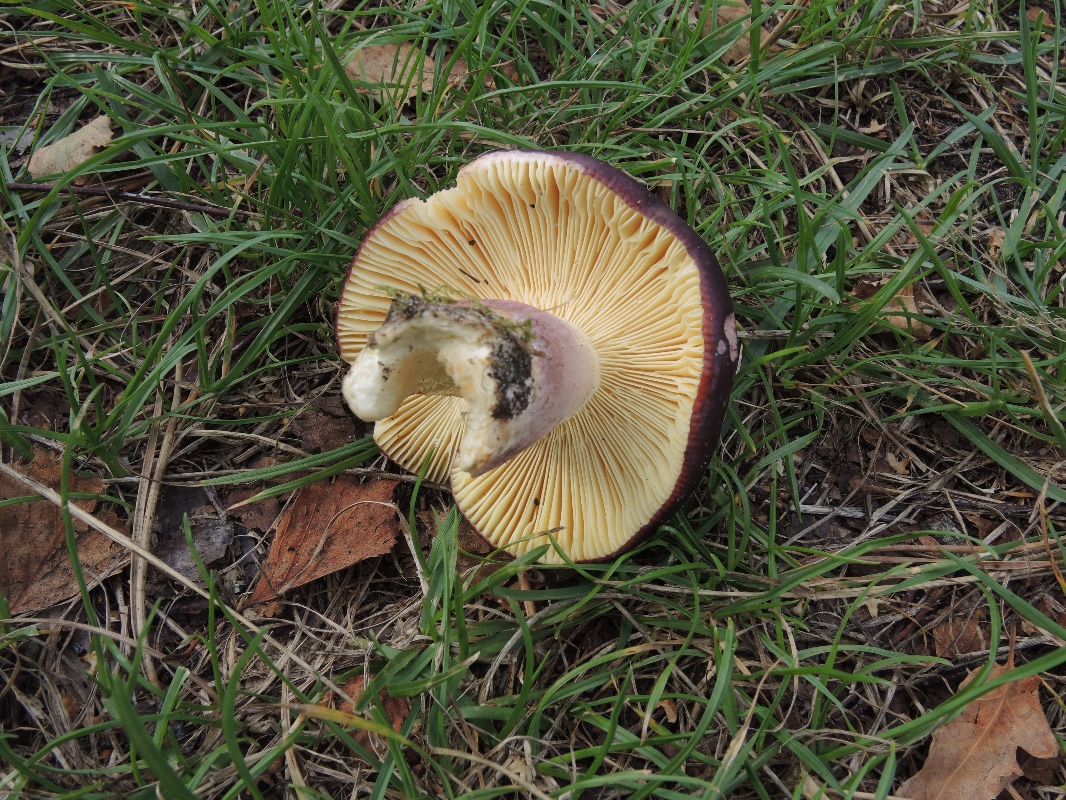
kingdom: Fungi
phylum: Basidiomycota
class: Agaricomycetes
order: Russulales
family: Russulaceae
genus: Russula
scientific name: Russula sardonia
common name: citronbladet skørhat
